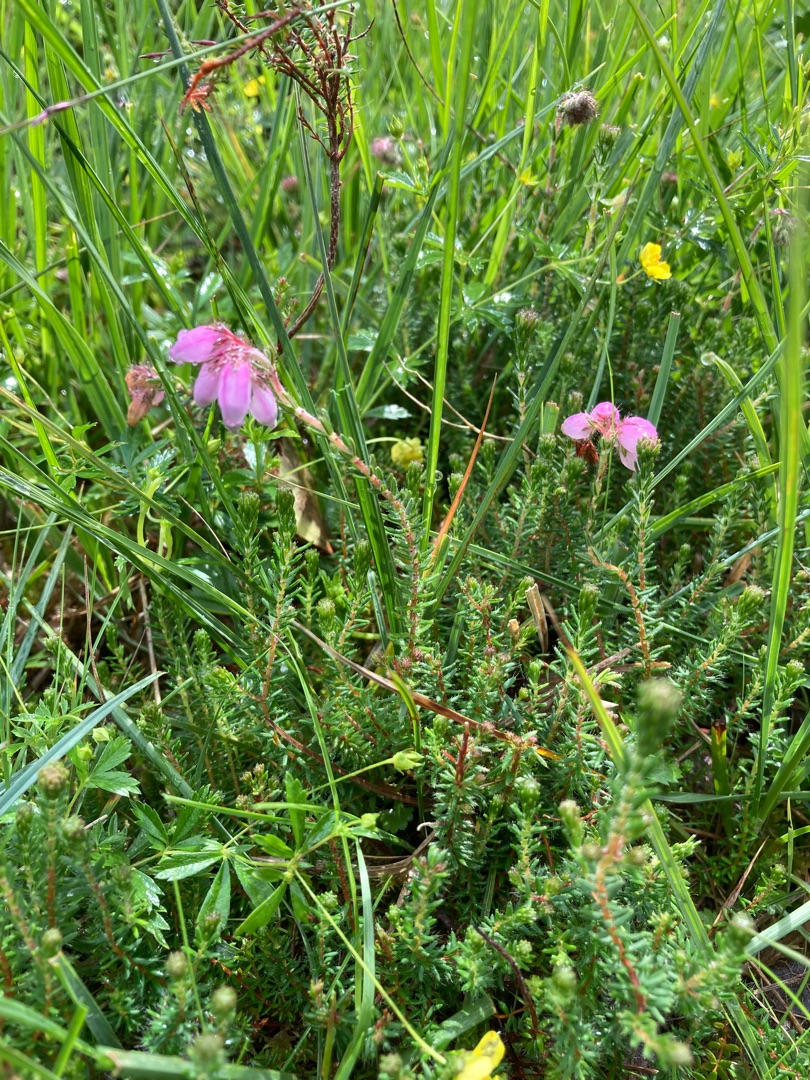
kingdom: Plantae
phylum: Tracheophyta
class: Magnoliopsida
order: Ericales
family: Ericaceae
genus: Erica
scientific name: Erica tetralix
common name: Klokkelyng
